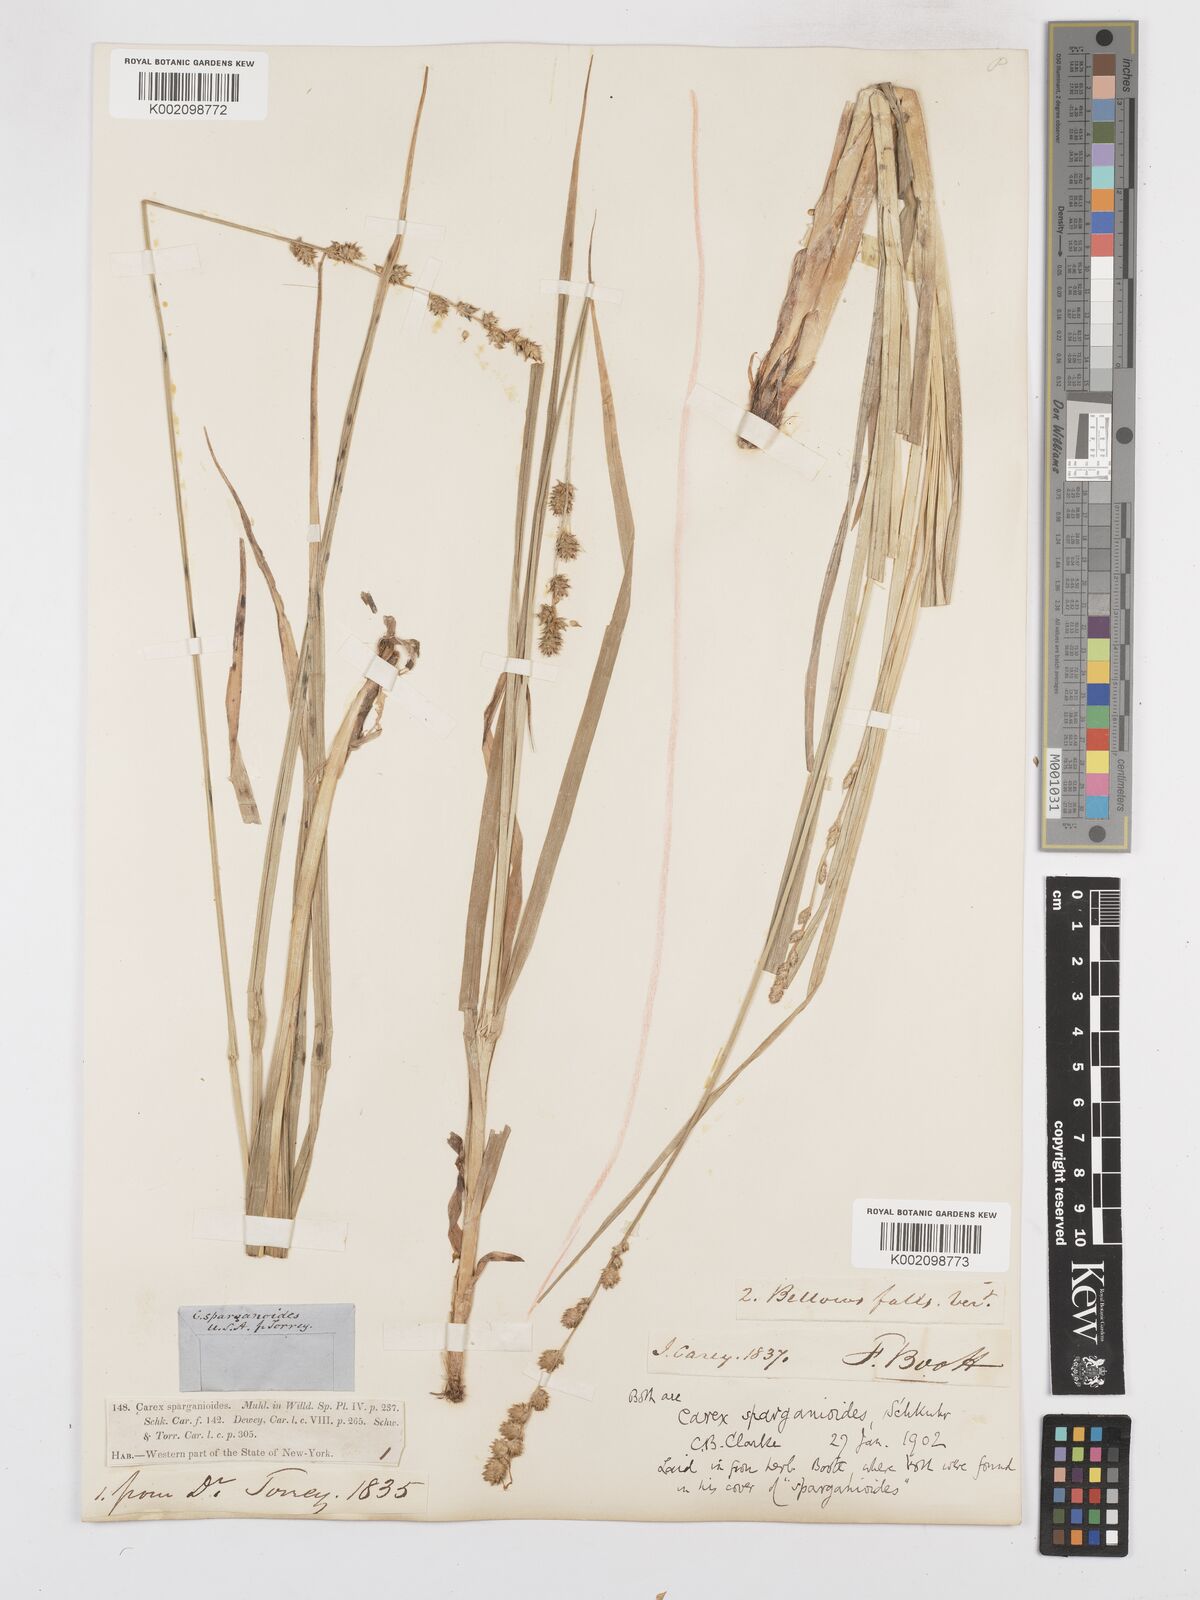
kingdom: Plantae
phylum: Tracheophyta
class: Liliopsida
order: Poales
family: Cyperaceae
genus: Carex
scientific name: Carex sparganioides
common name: Burreed sedge
